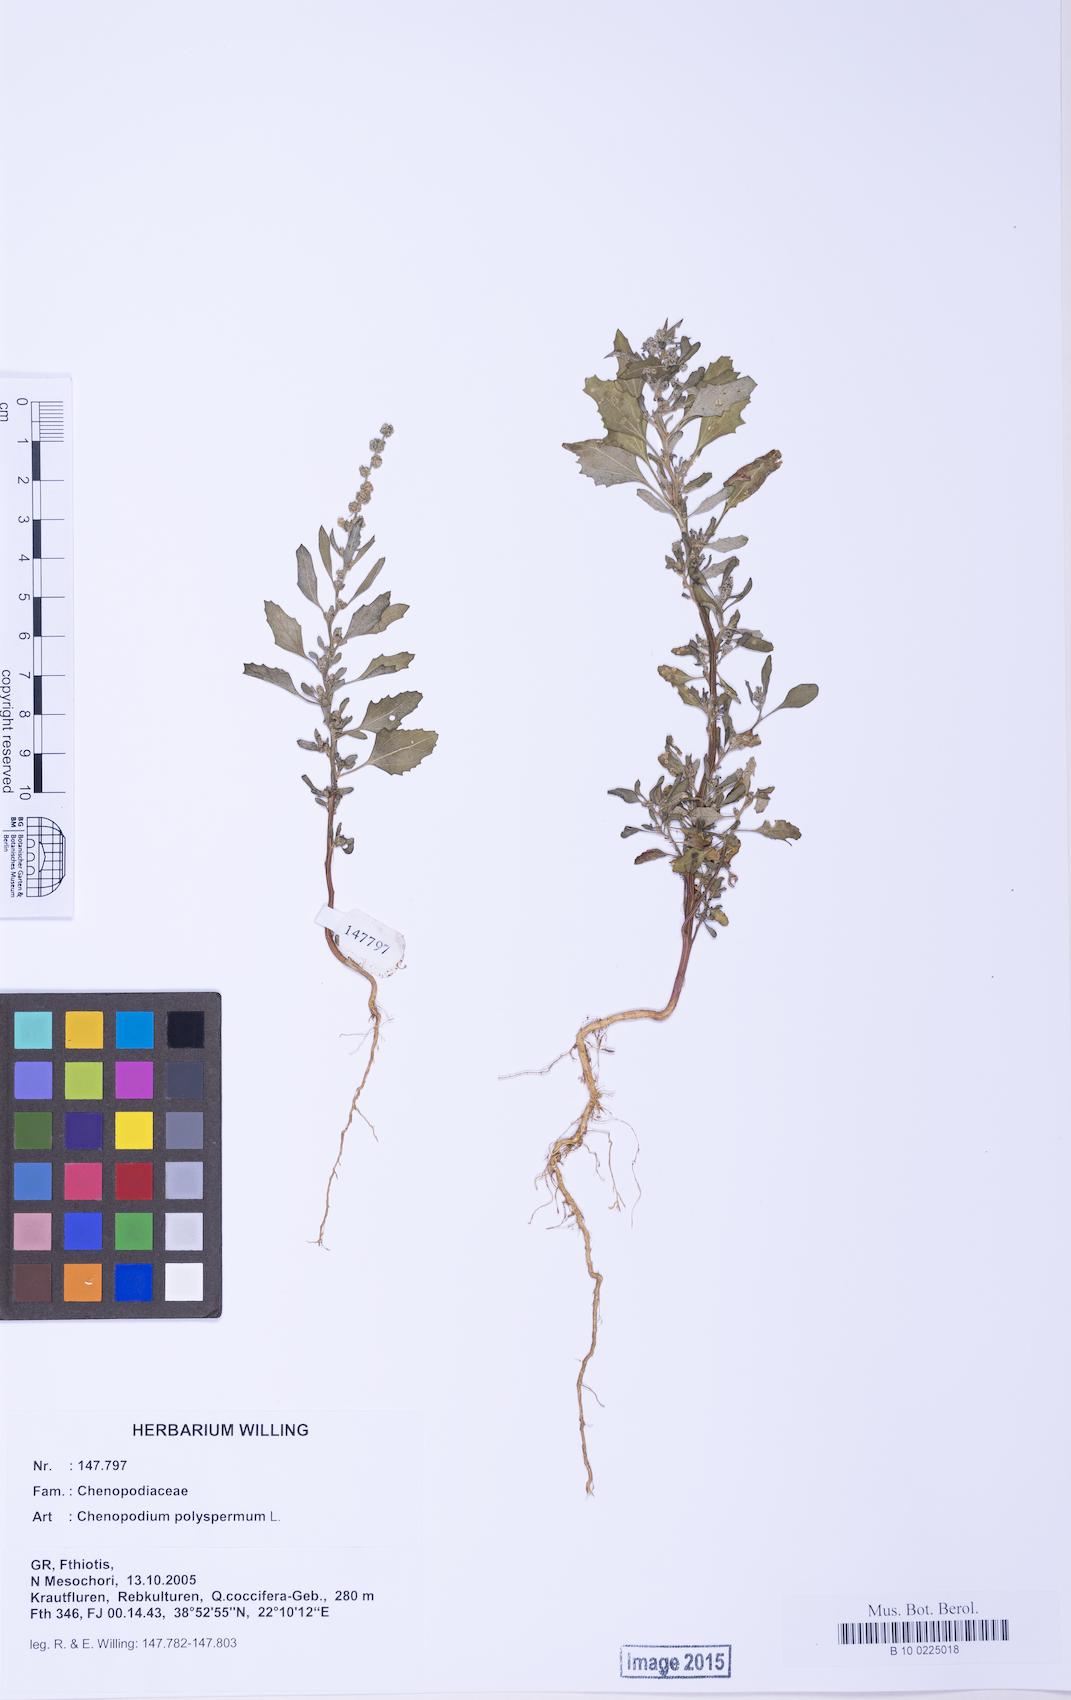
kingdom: Plantae
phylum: Tracheophyta
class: Magnoliopsida
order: Caryophyllales
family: Amaranthaceae
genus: Chenopodium
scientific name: Chenopodium album
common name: Fat-hen
